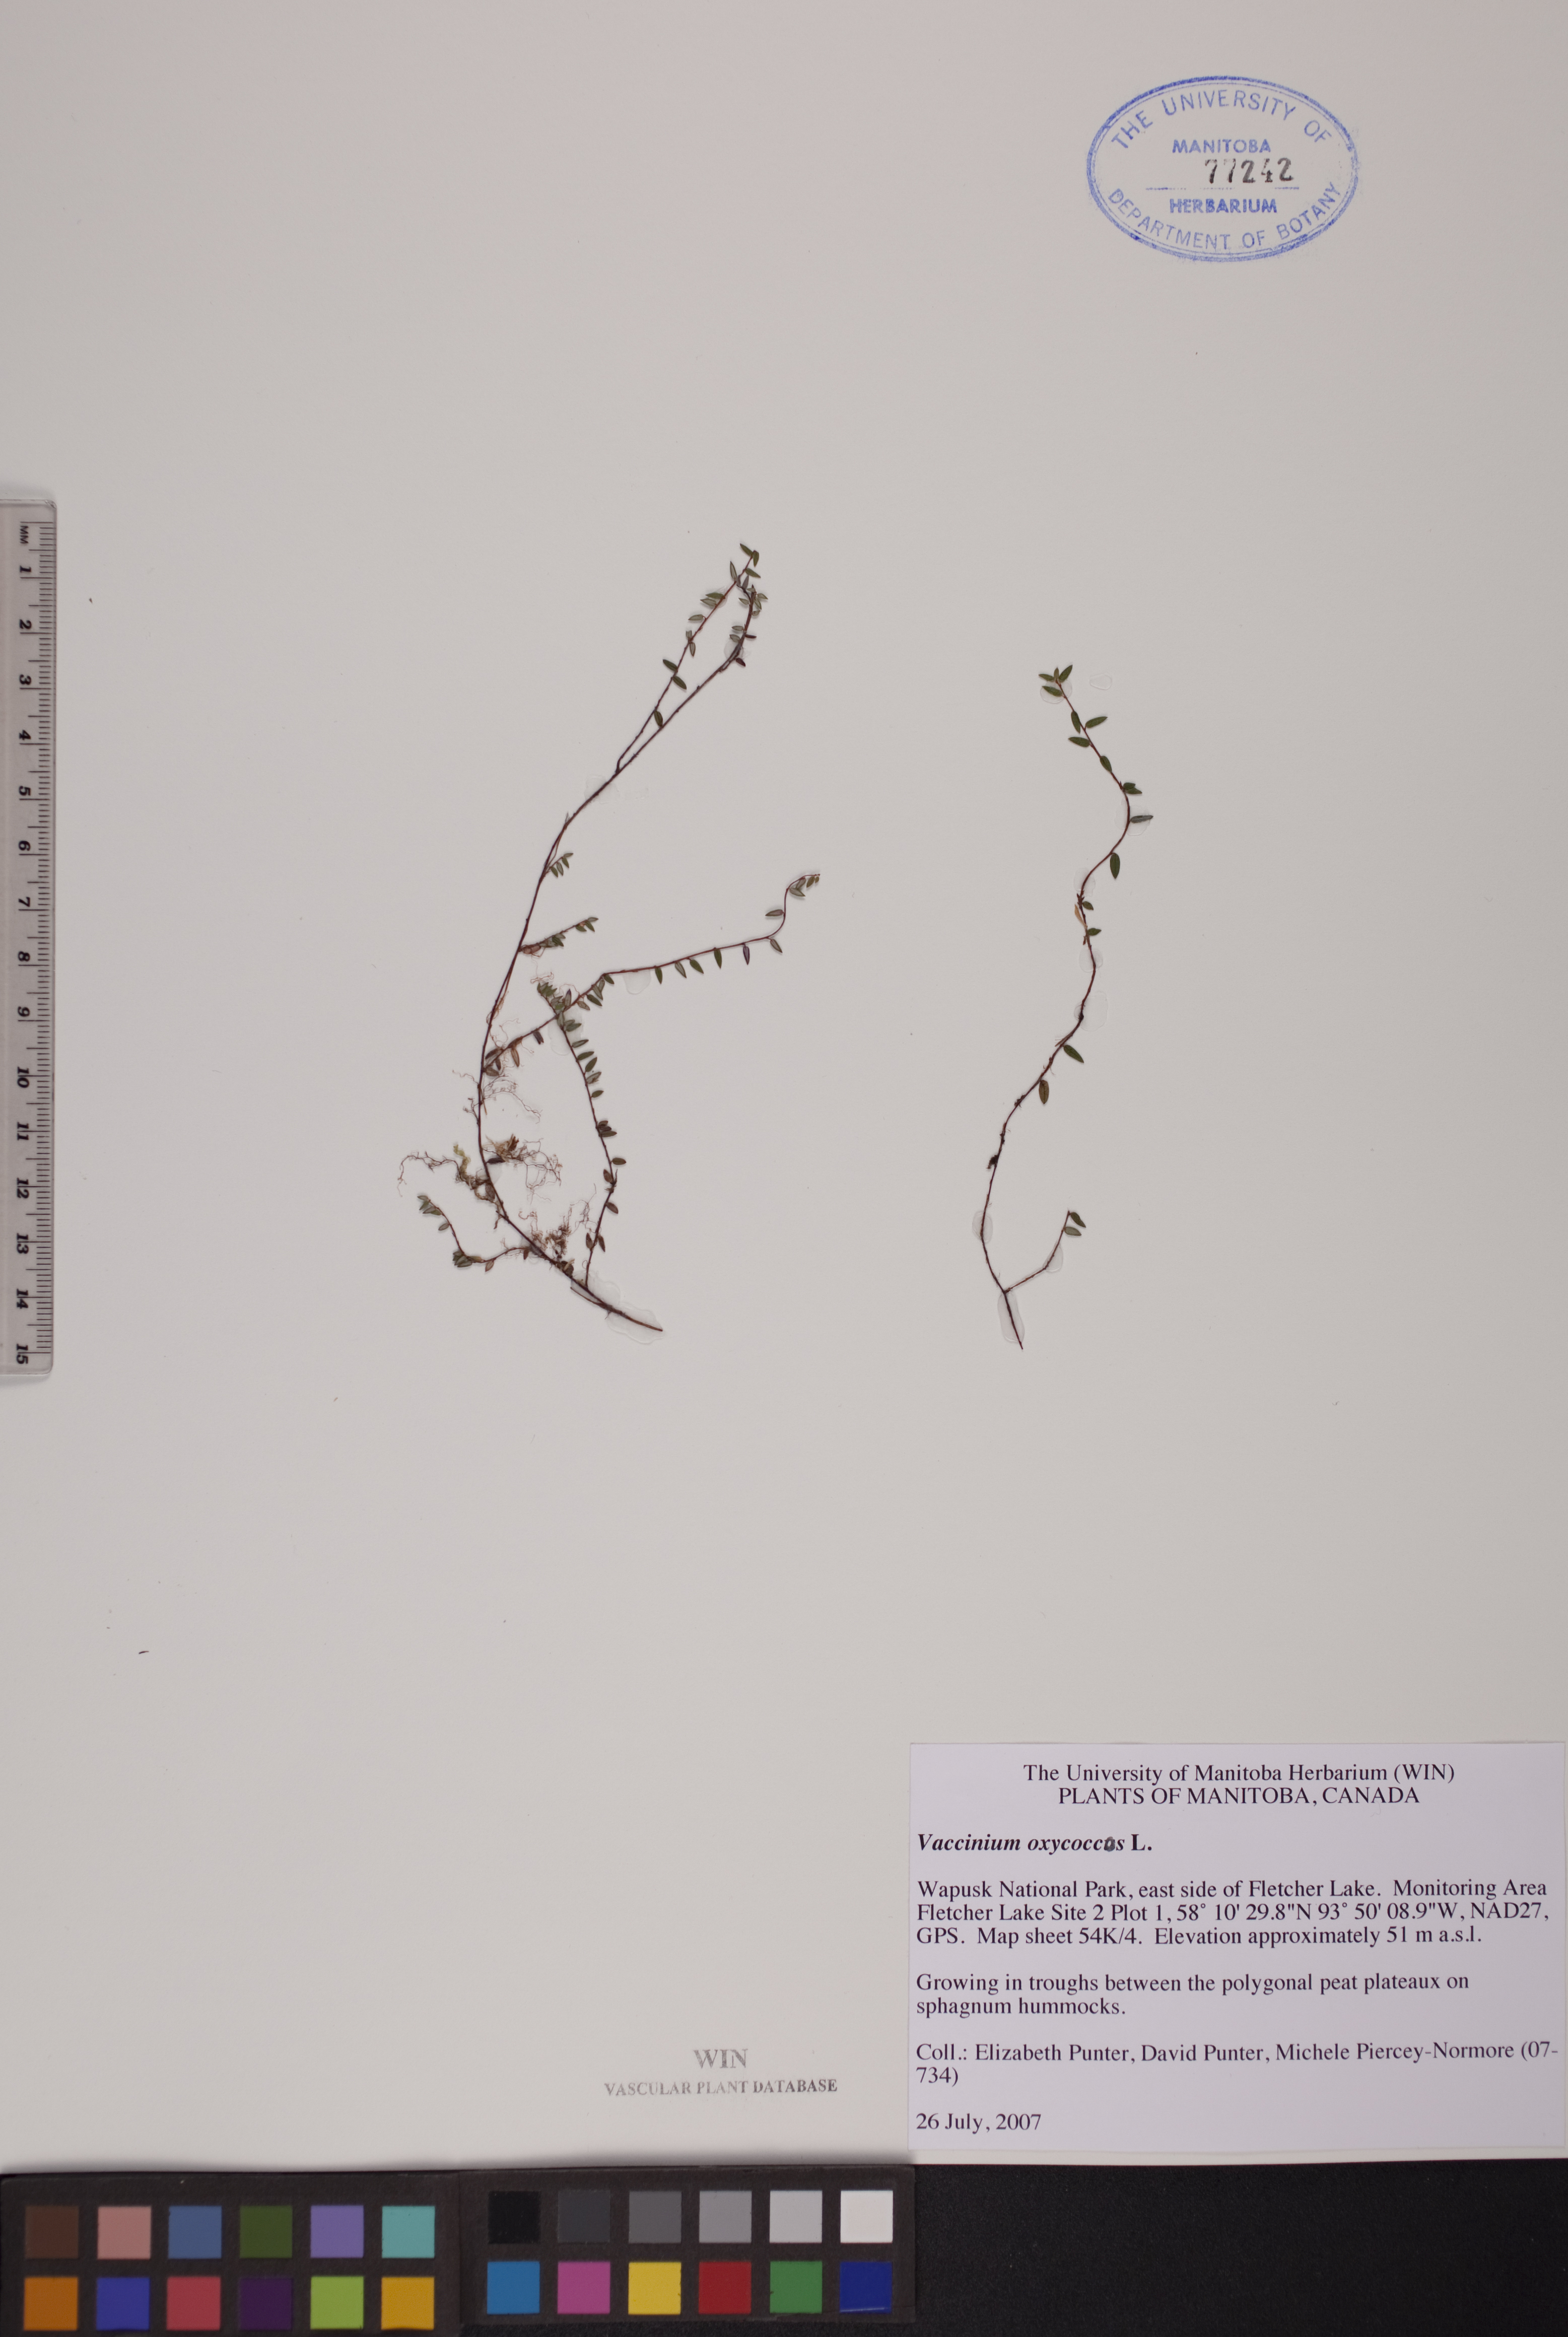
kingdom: Plantae
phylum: Tracheophyta
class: Magnoliopsida
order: Ericales
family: Ericaceae
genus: Vaccinium
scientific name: Vaccinium oxycoccos
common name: Cranberry
